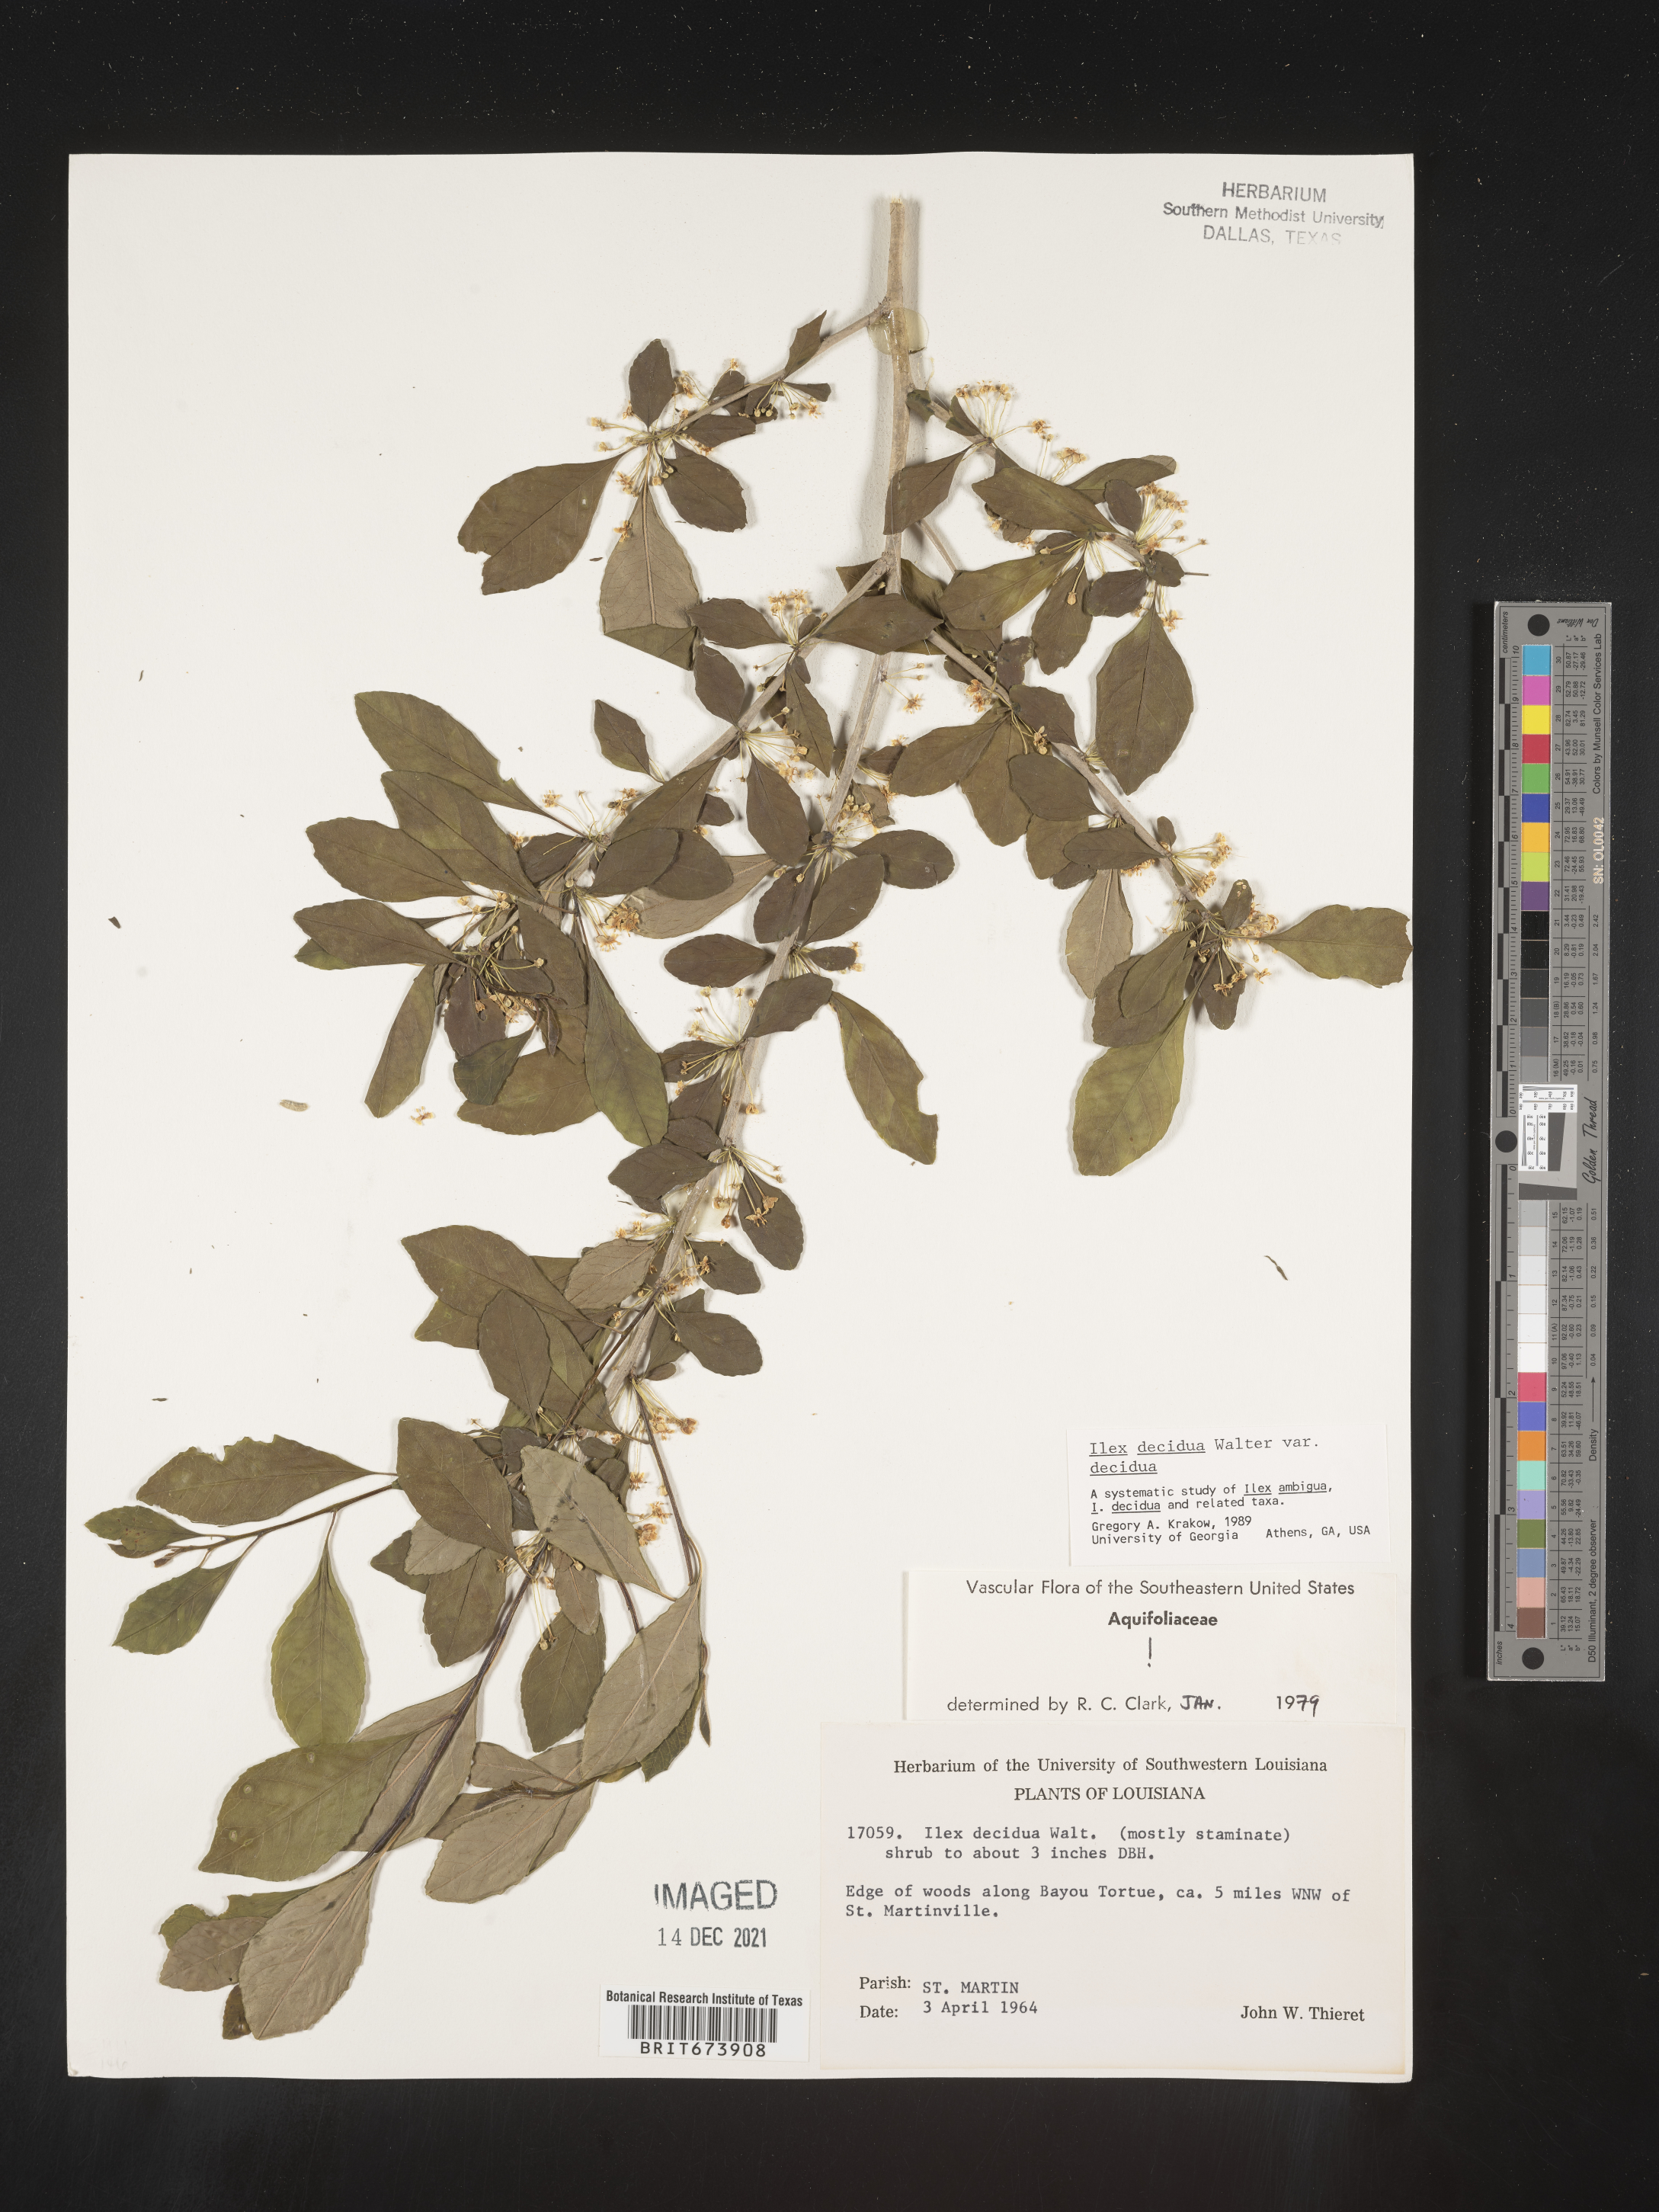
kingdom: Plantae
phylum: Tracheophyta
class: Magnoliopsida
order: Aquifoliales
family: Aquifoliaceae
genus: Ilex
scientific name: Ilex decidua
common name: Possum-haw
